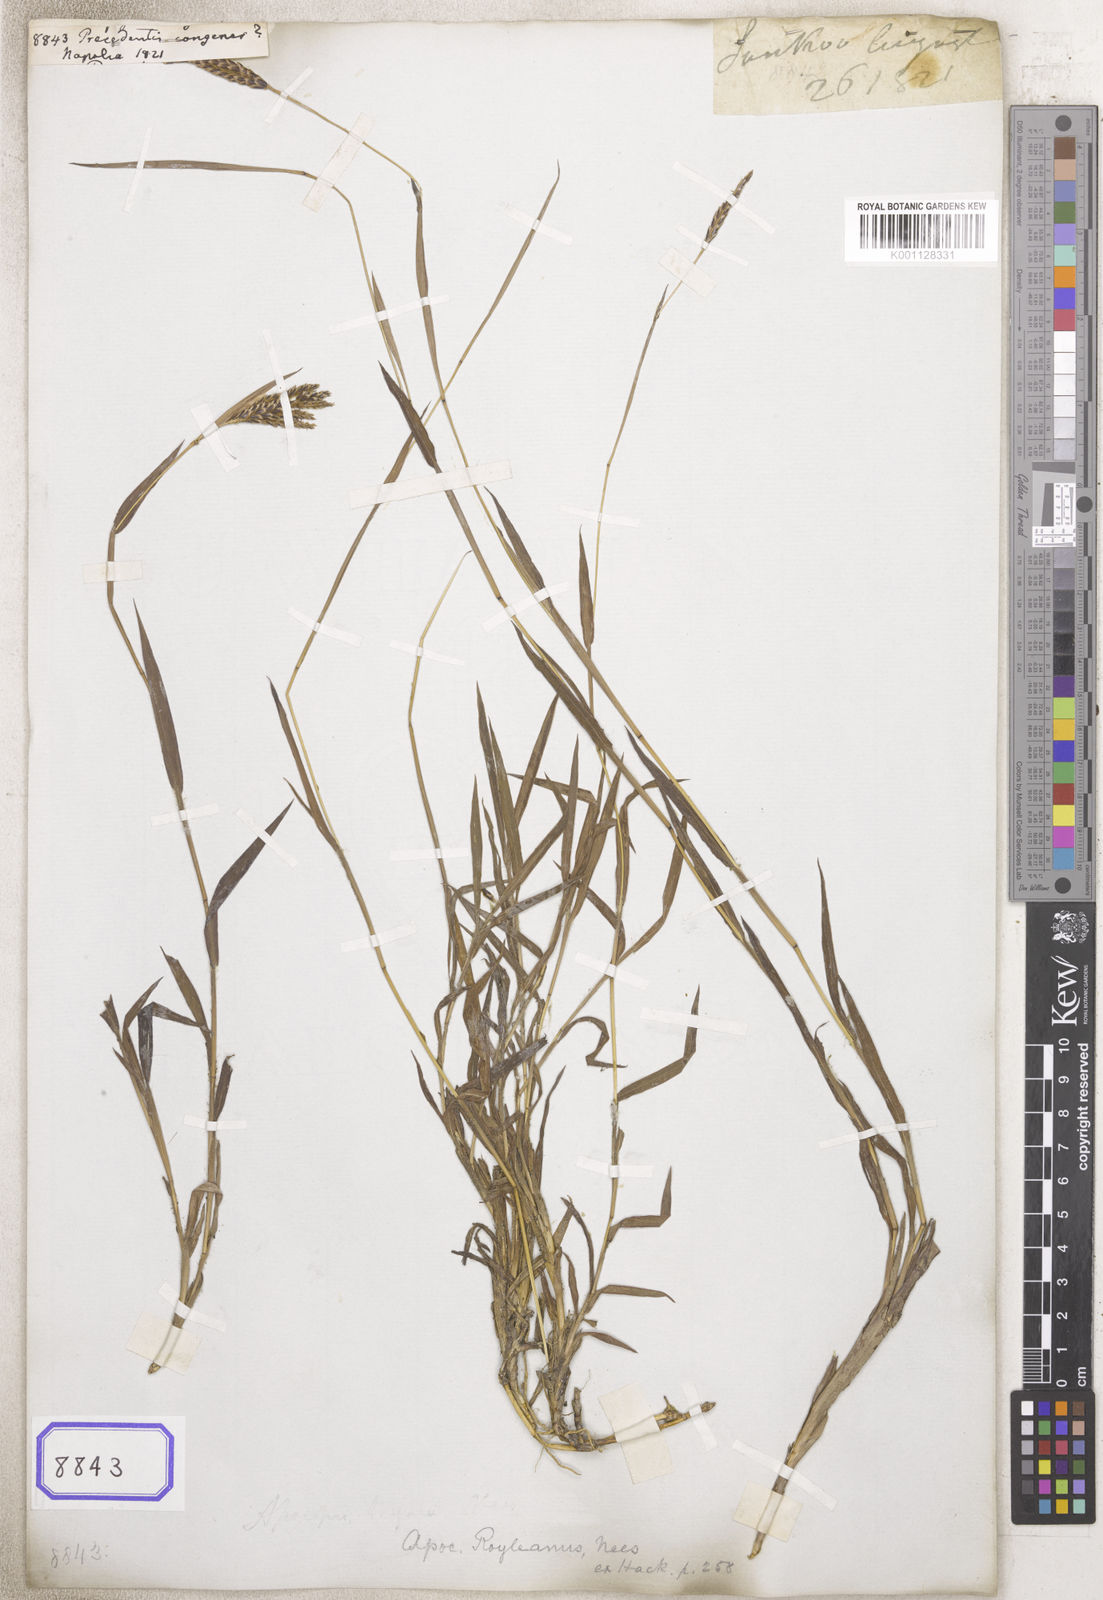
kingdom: Plantae
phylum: Tracheophyta
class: Liliopsida
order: Poales
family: Poaceae
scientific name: Poaceae
